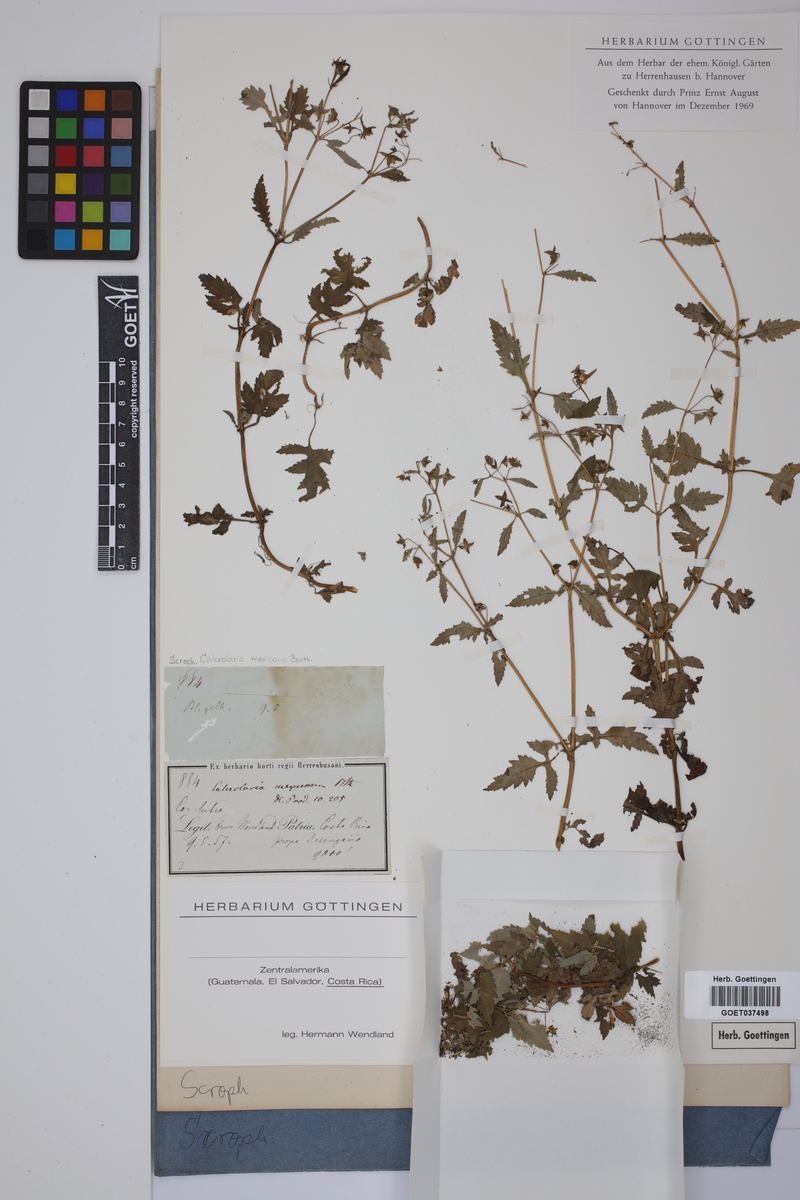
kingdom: Plantae
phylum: Tracheophyta
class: Magnoliopsida
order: Lamiales
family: Calceolariaceae
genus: Calceolaria
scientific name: Calceolaria mexicana
